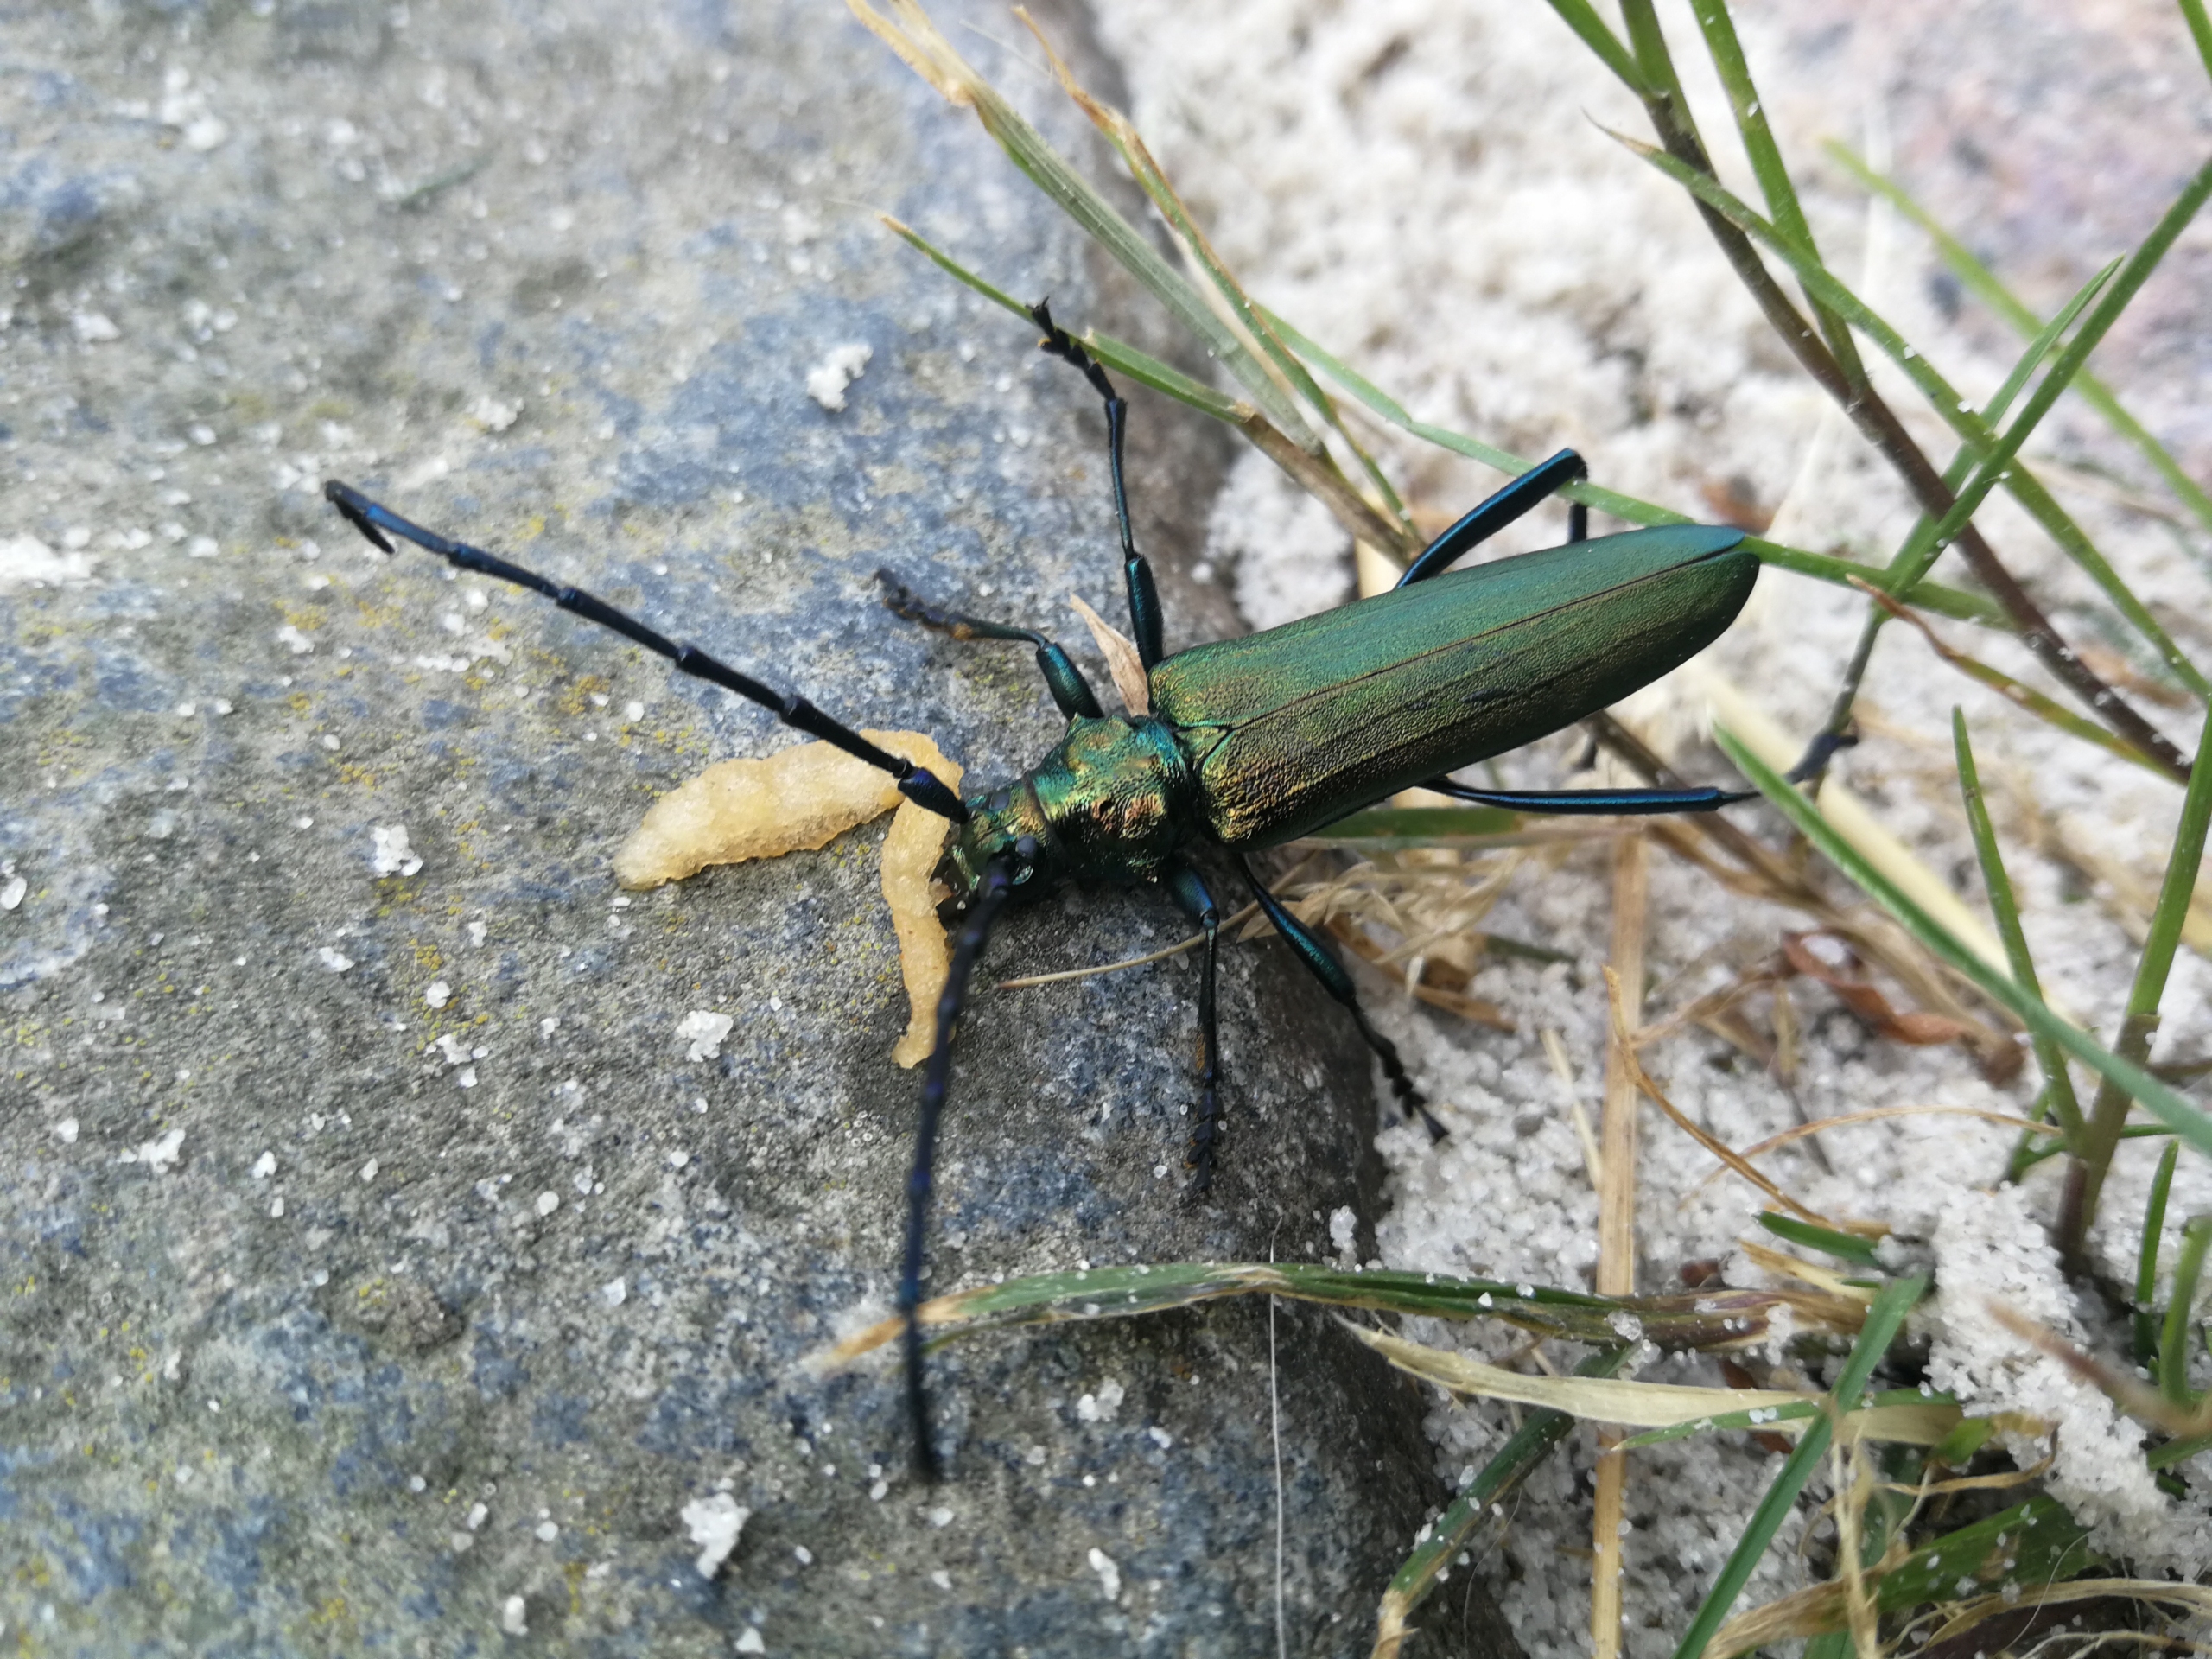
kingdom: Animalia
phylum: Arthropoda
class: Insecta
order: Coleoptera
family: Cerambycidae
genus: Aromia
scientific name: Aromia moschata
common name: Moskusbuk
